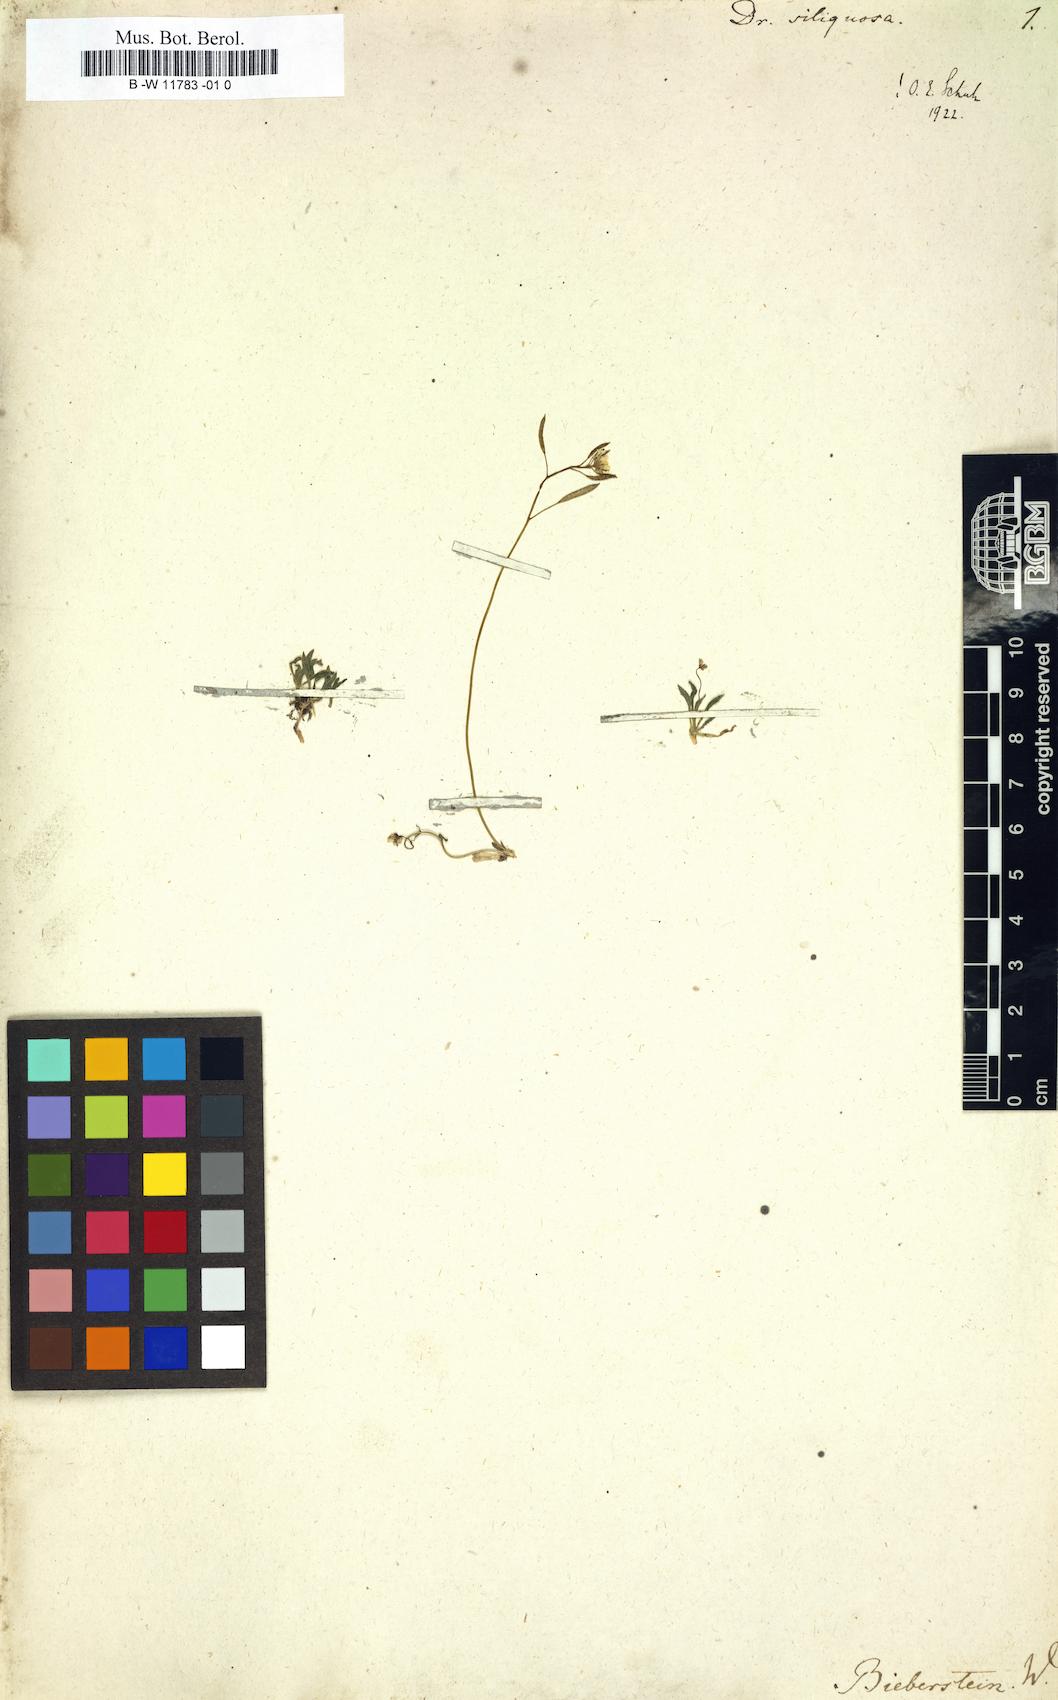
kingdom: Plantae
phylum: Tracheophyta
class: Magnoliopsida
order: Brassicales
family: Brassicaceae
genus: Draba
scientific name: Draba siliquosa
